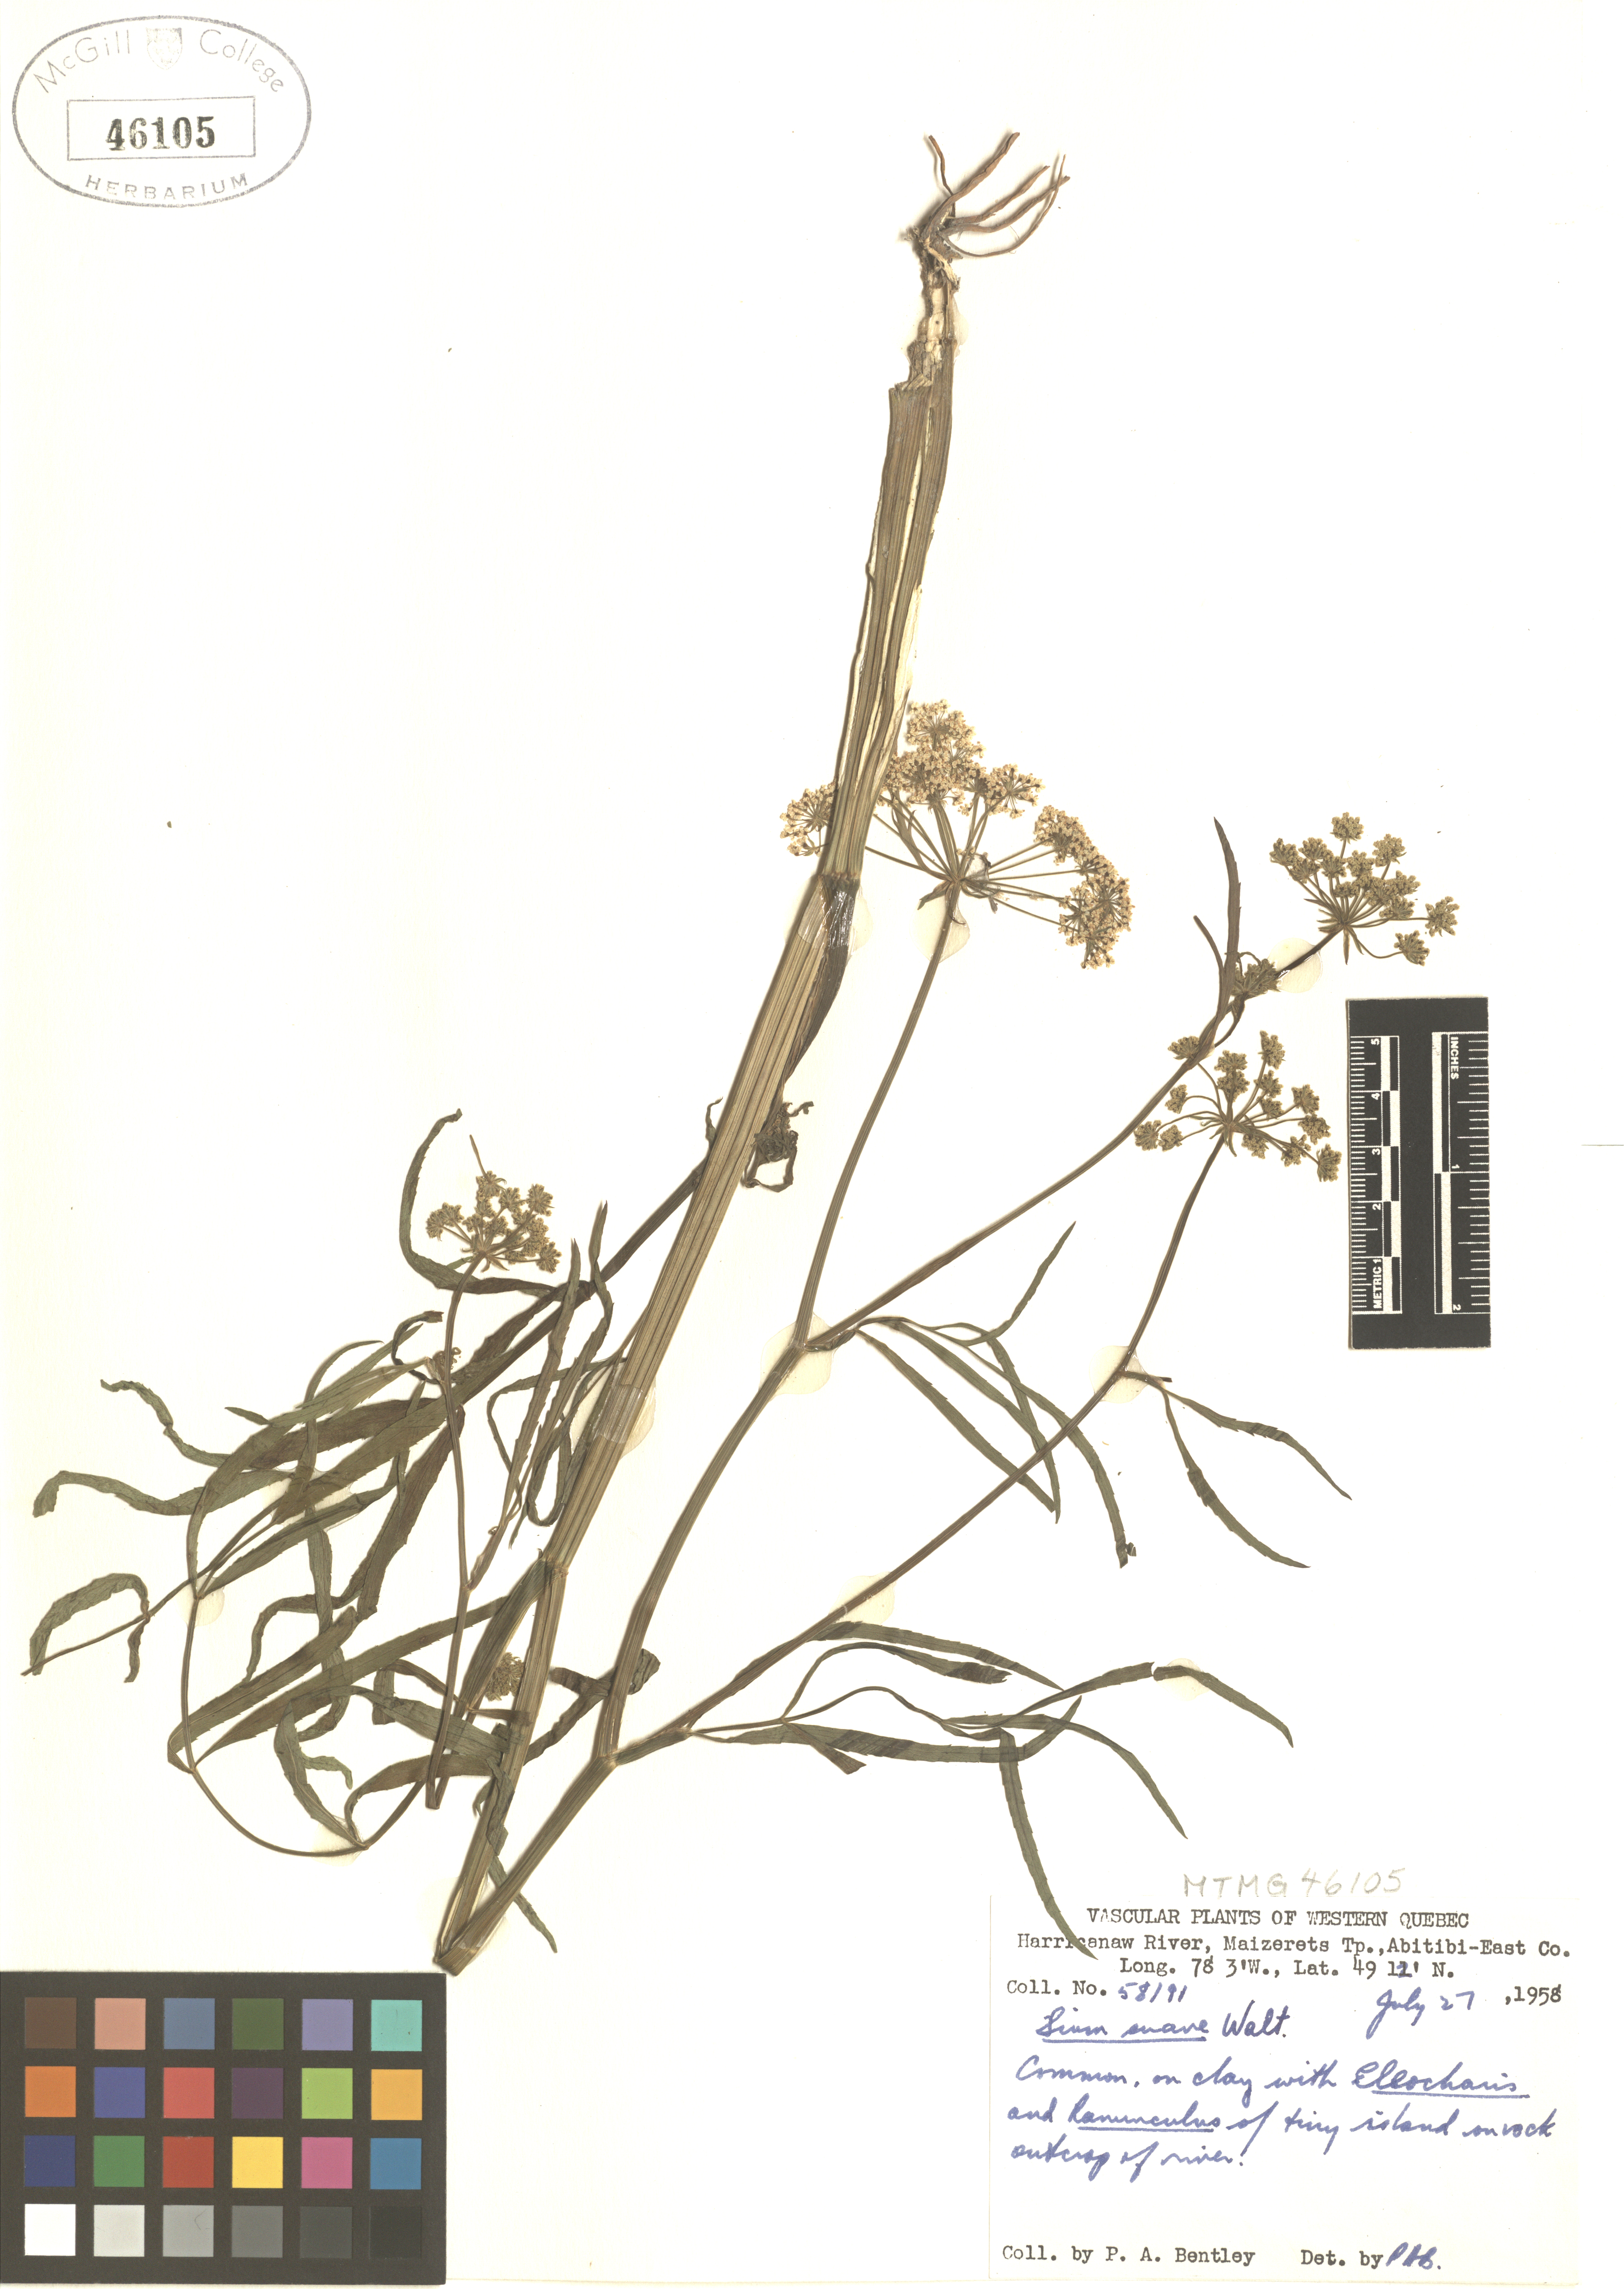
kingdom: Plantae
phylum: Tracheophyta
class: Magnoliopsida
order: Apiales
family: Apiaceae
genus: Sium
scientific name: Sium suave
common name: Hemlock water-parsnip
